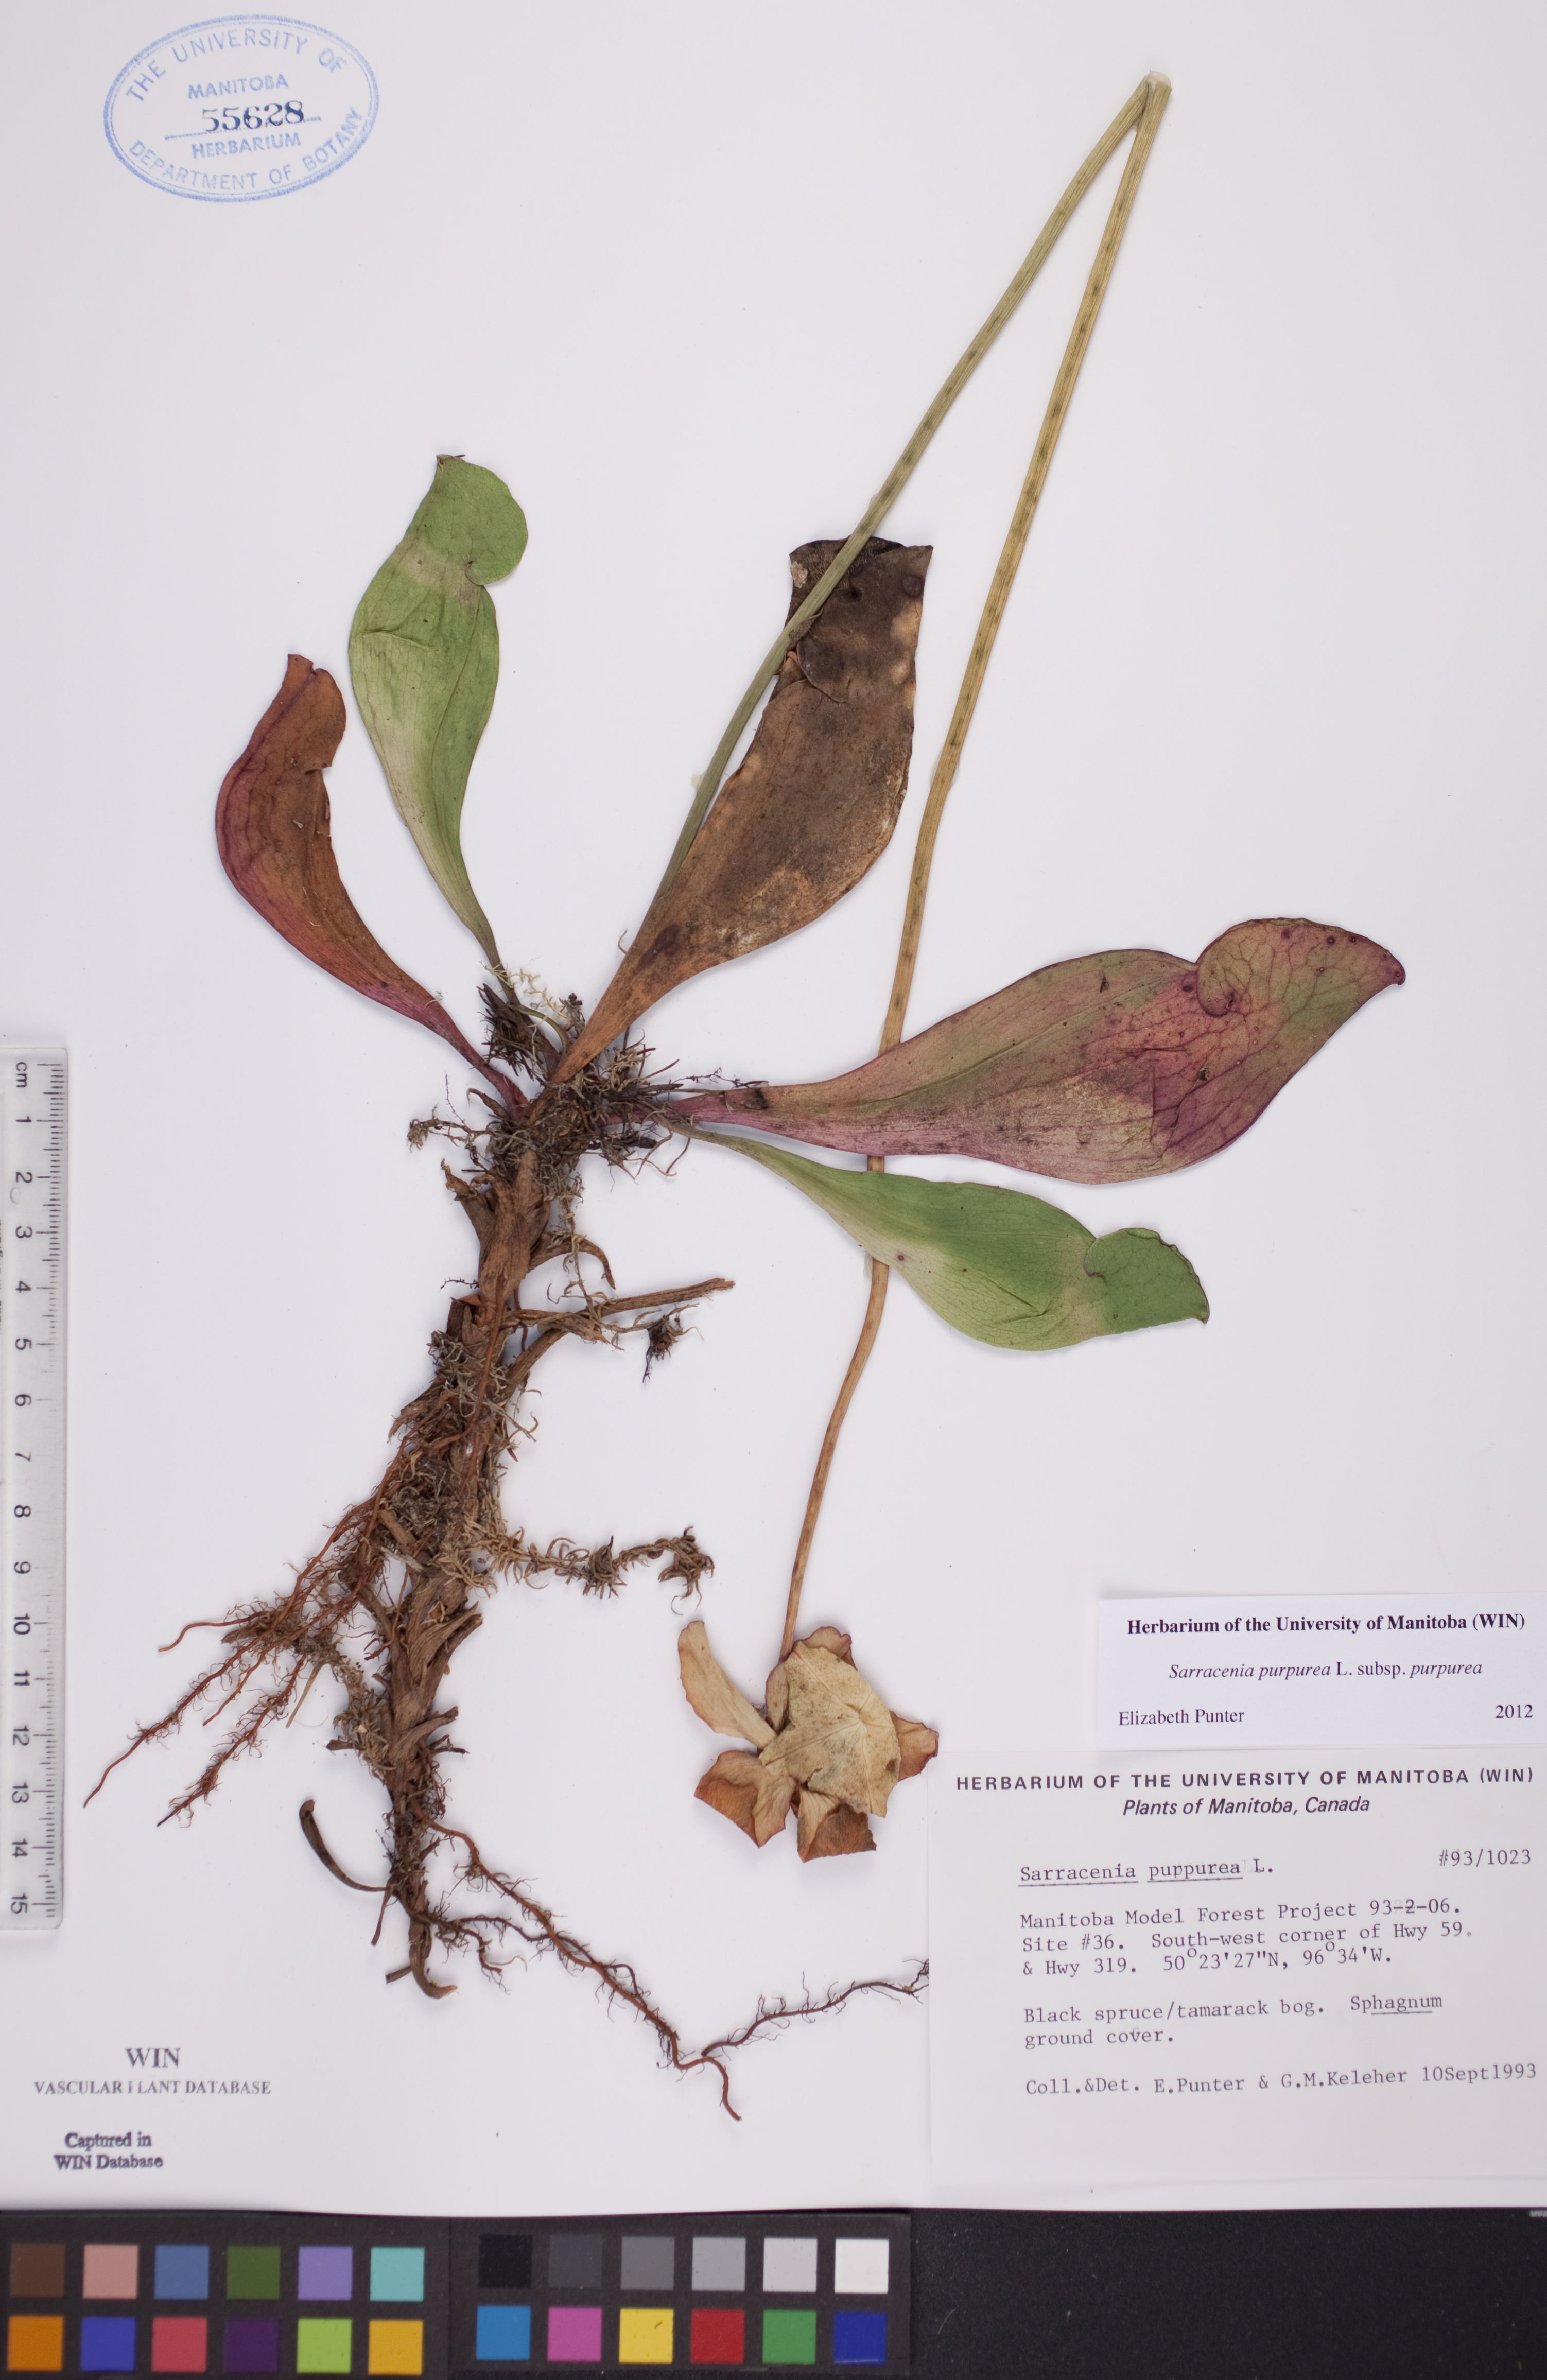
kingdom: Plantae
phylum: Tracheophyta
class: Magnoliopsida
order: Ericales
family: Sarraceniaceae
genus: Sarracenia
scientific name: Sarracenia purpurea
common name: Pitcherplant
